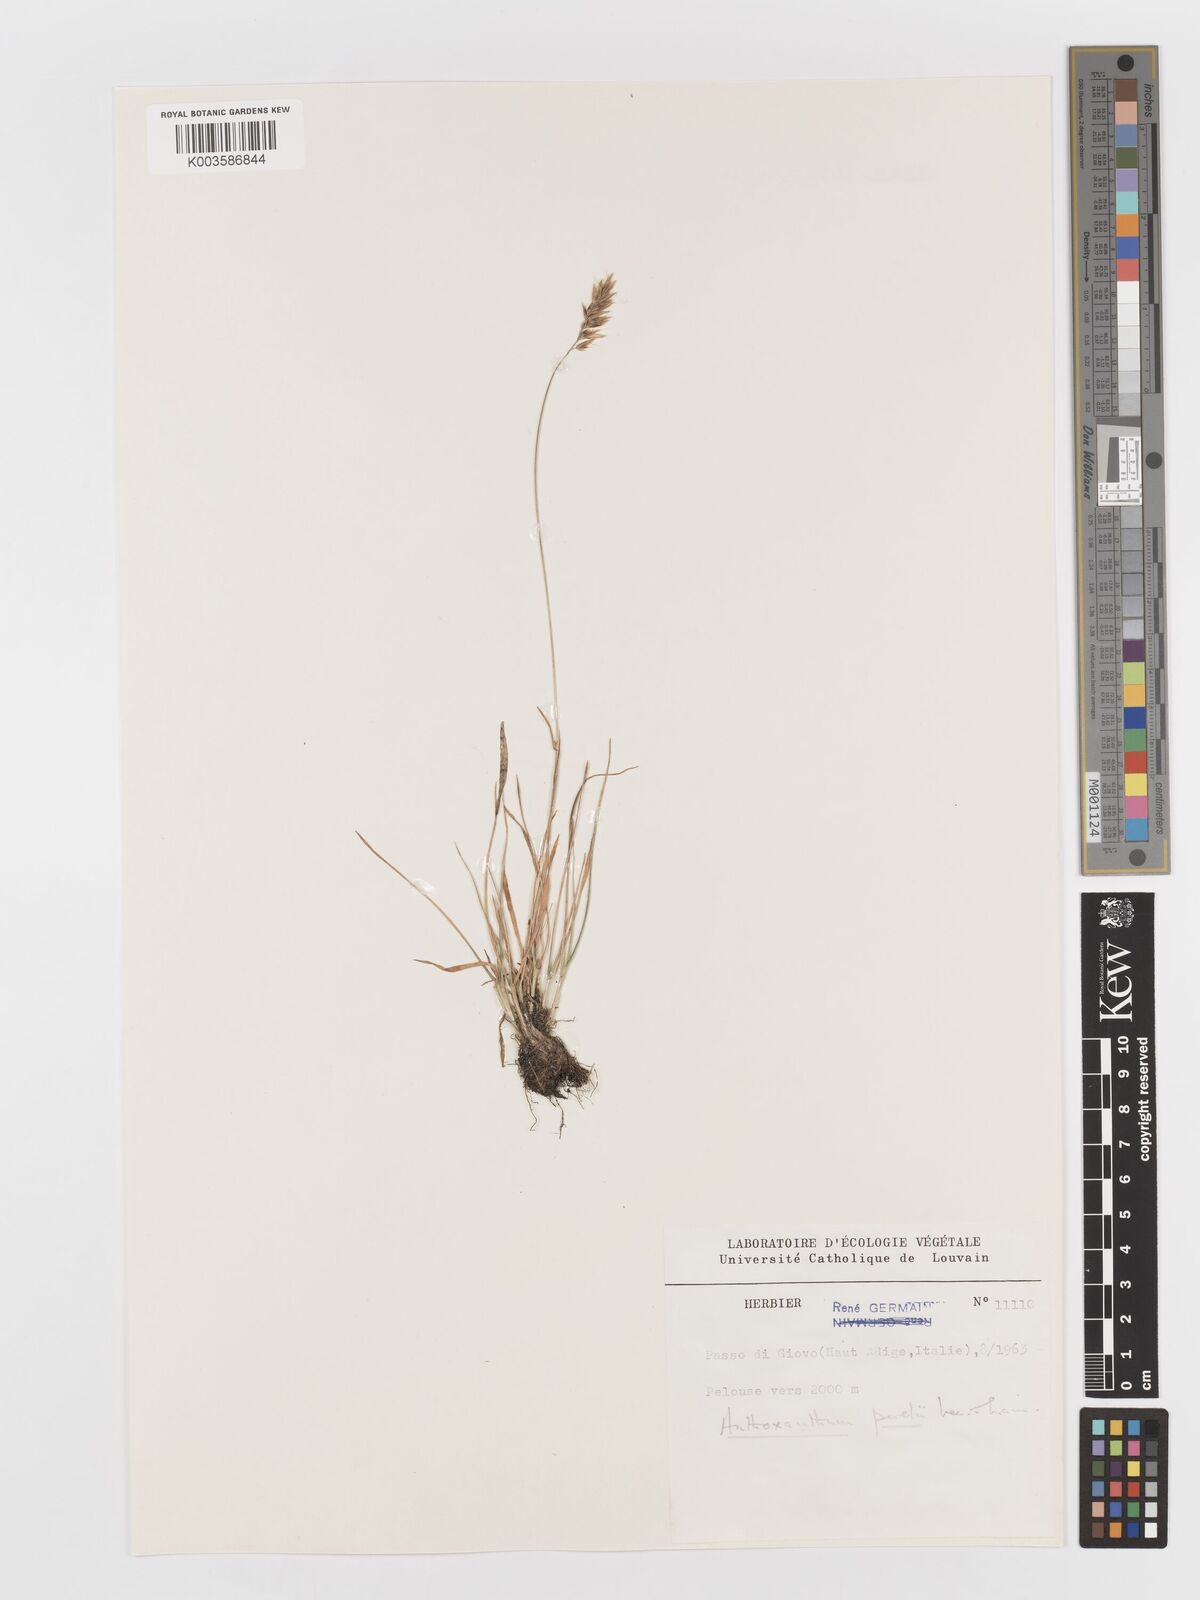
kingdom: Plantae
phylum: Tracheophyta
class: Liliopsida
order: Poales
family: Poaceae
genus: Anthoxanthum
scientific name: Anthoxanthum
